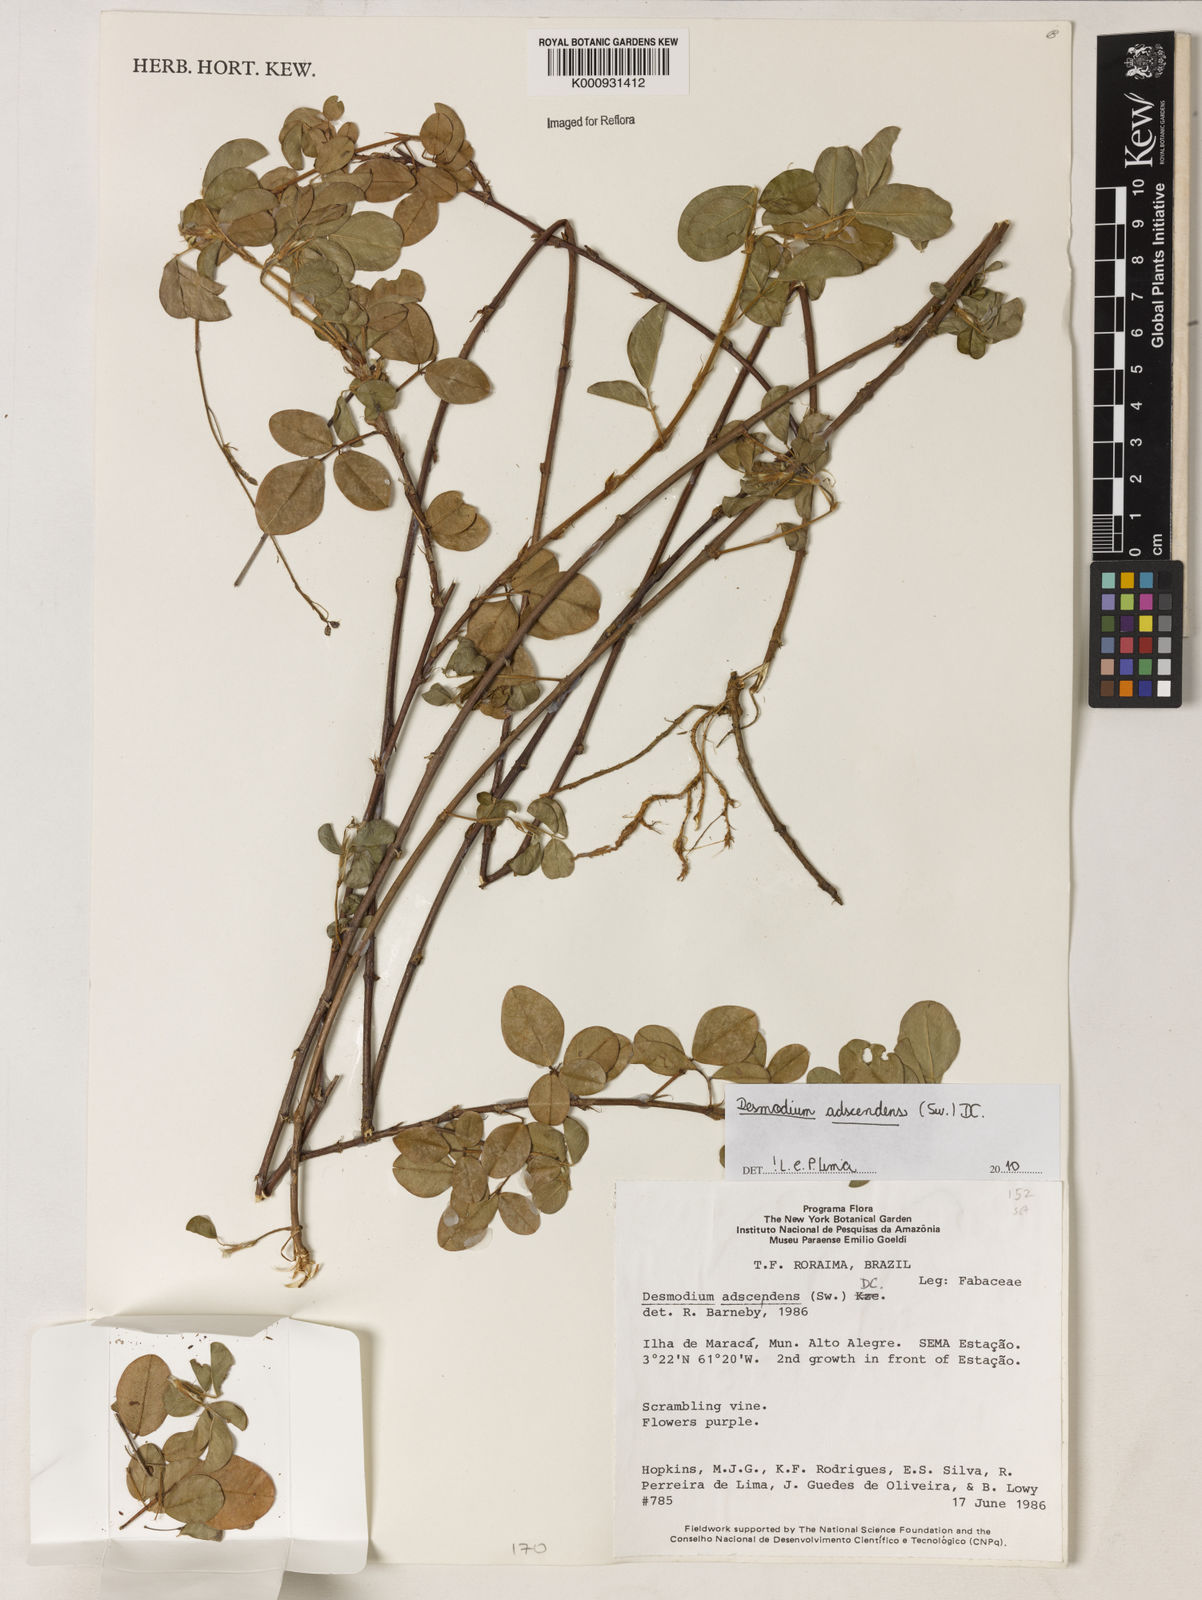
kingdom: Plantae
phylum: Tracheophyta
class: Magnoliopsida
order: Fabales
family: Fabaceae
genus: Grona
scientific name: Grona adscendens
